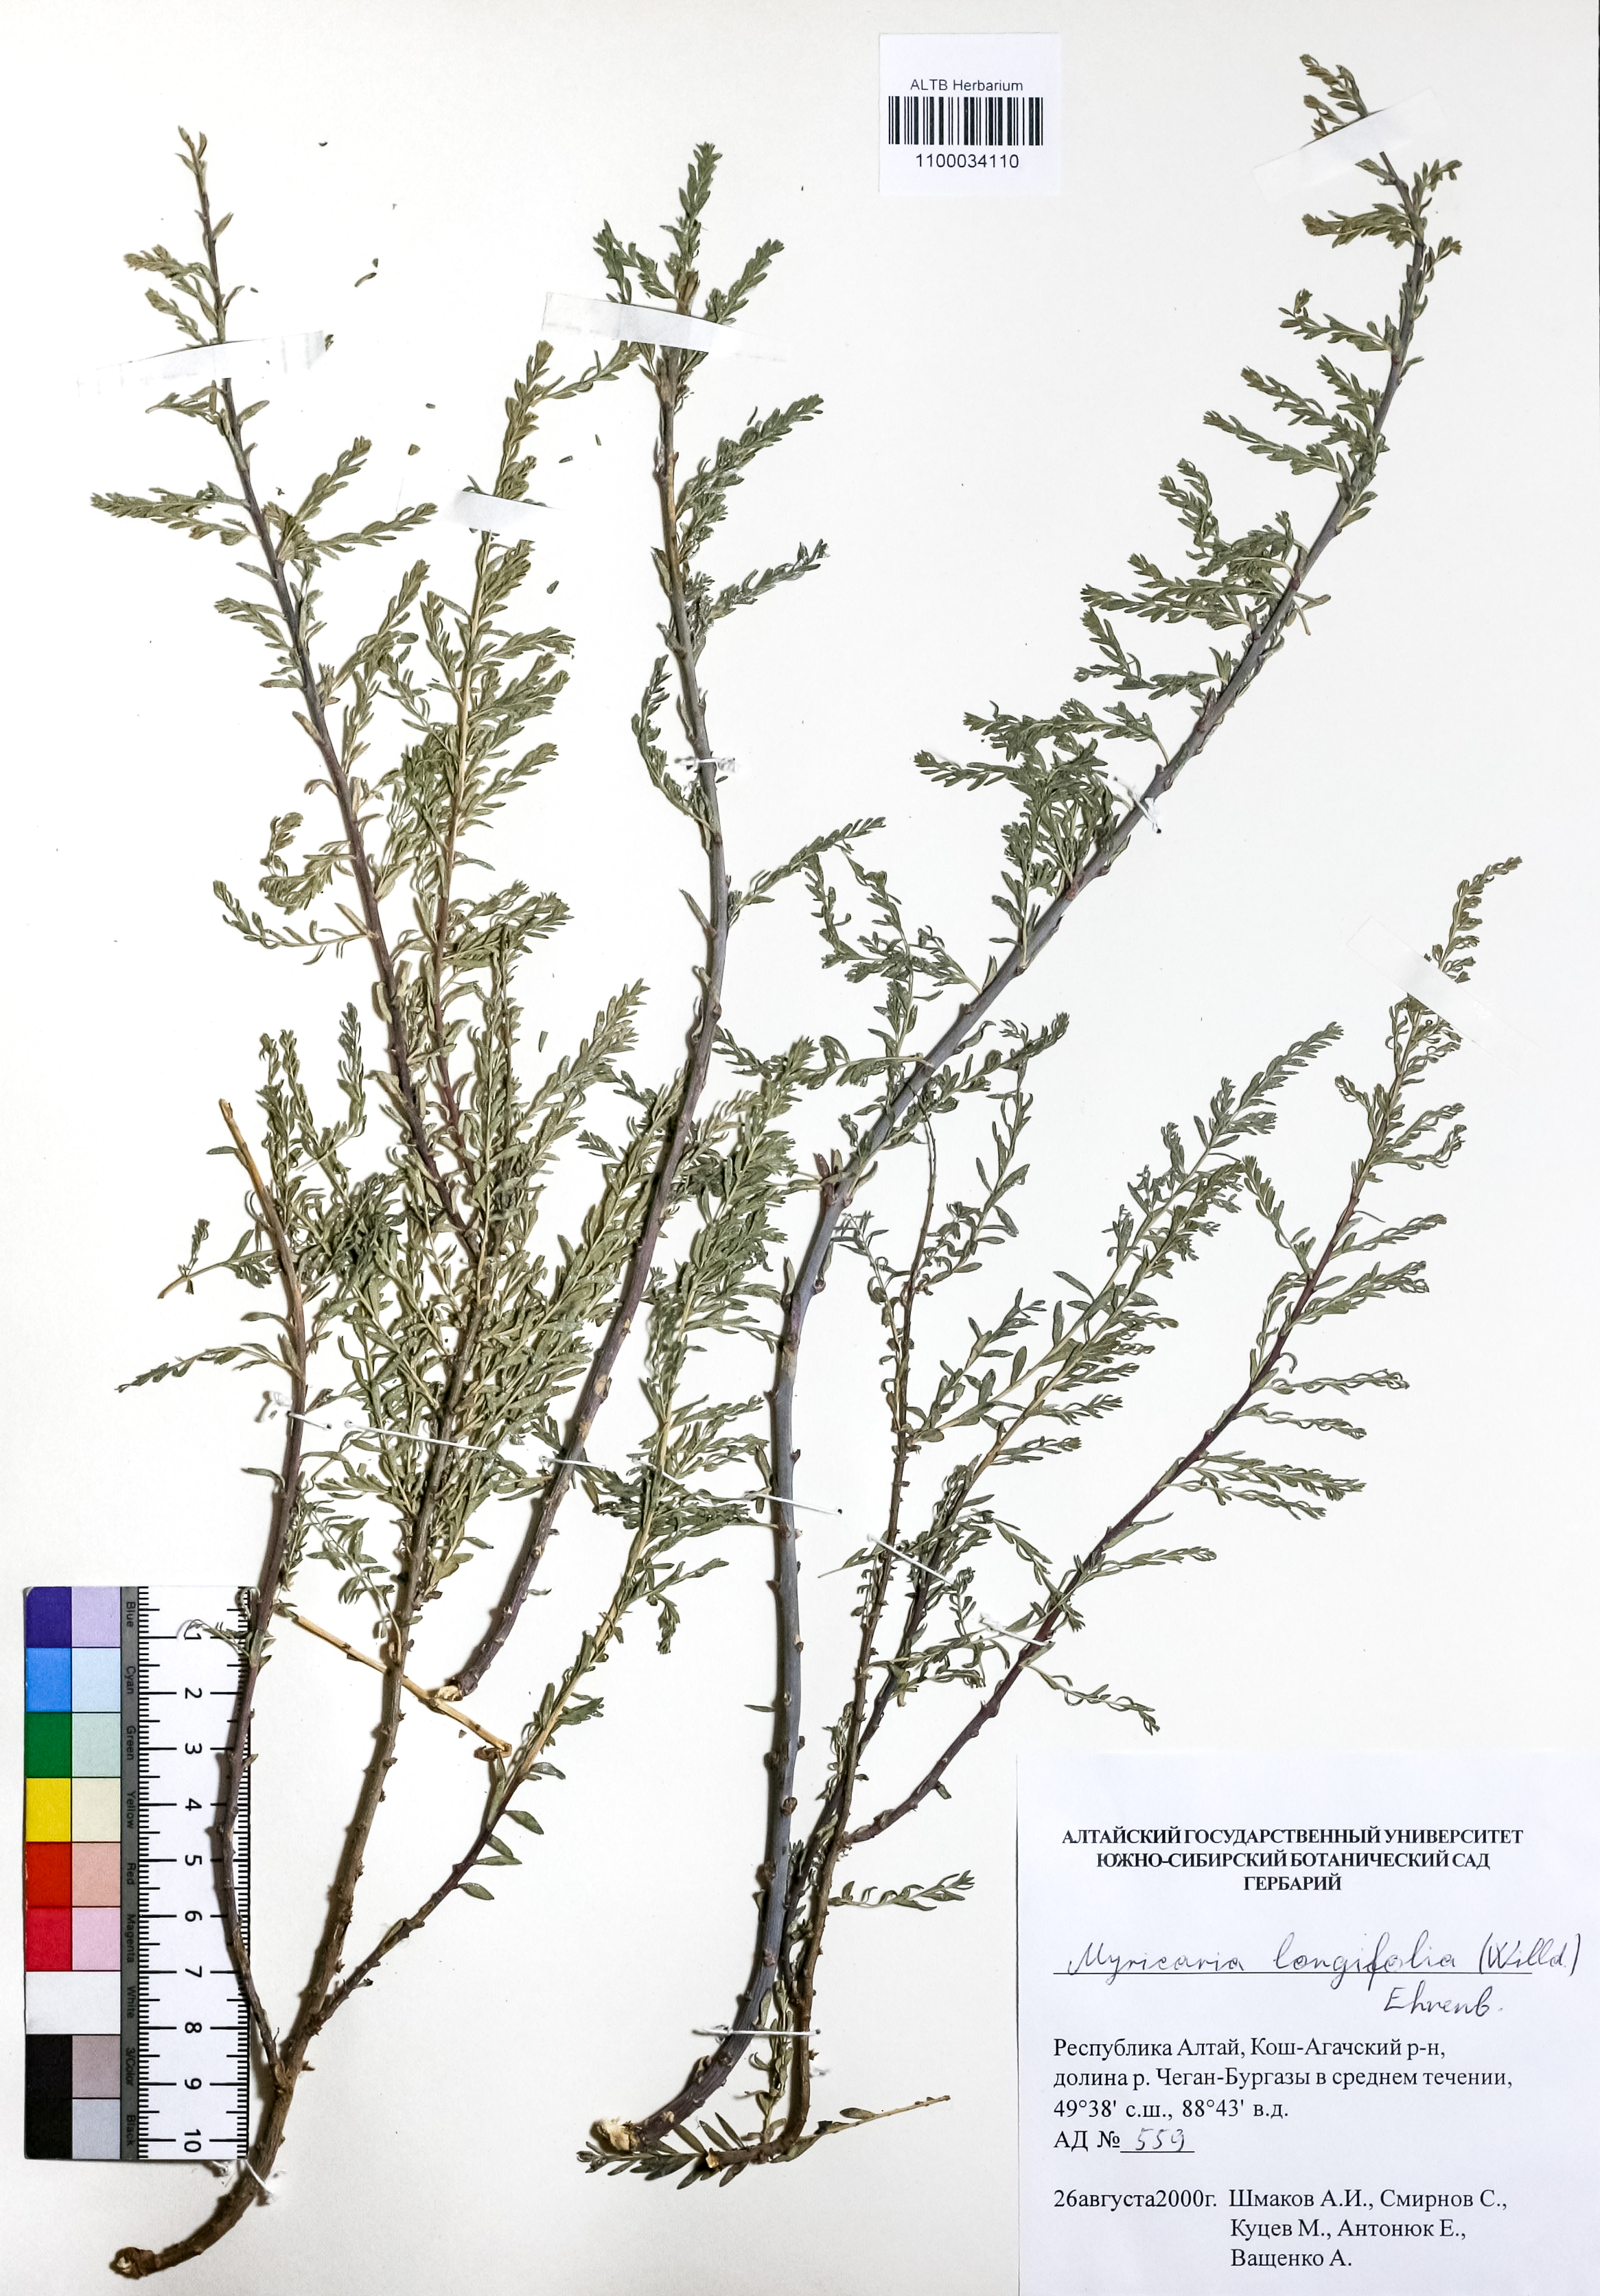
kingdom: Plantae
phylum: Tracheophyta
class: Magnoliopsida
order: Caryophyllales
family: Tamaricaceae
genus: Myricaria
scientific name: Myricaria longifolia
